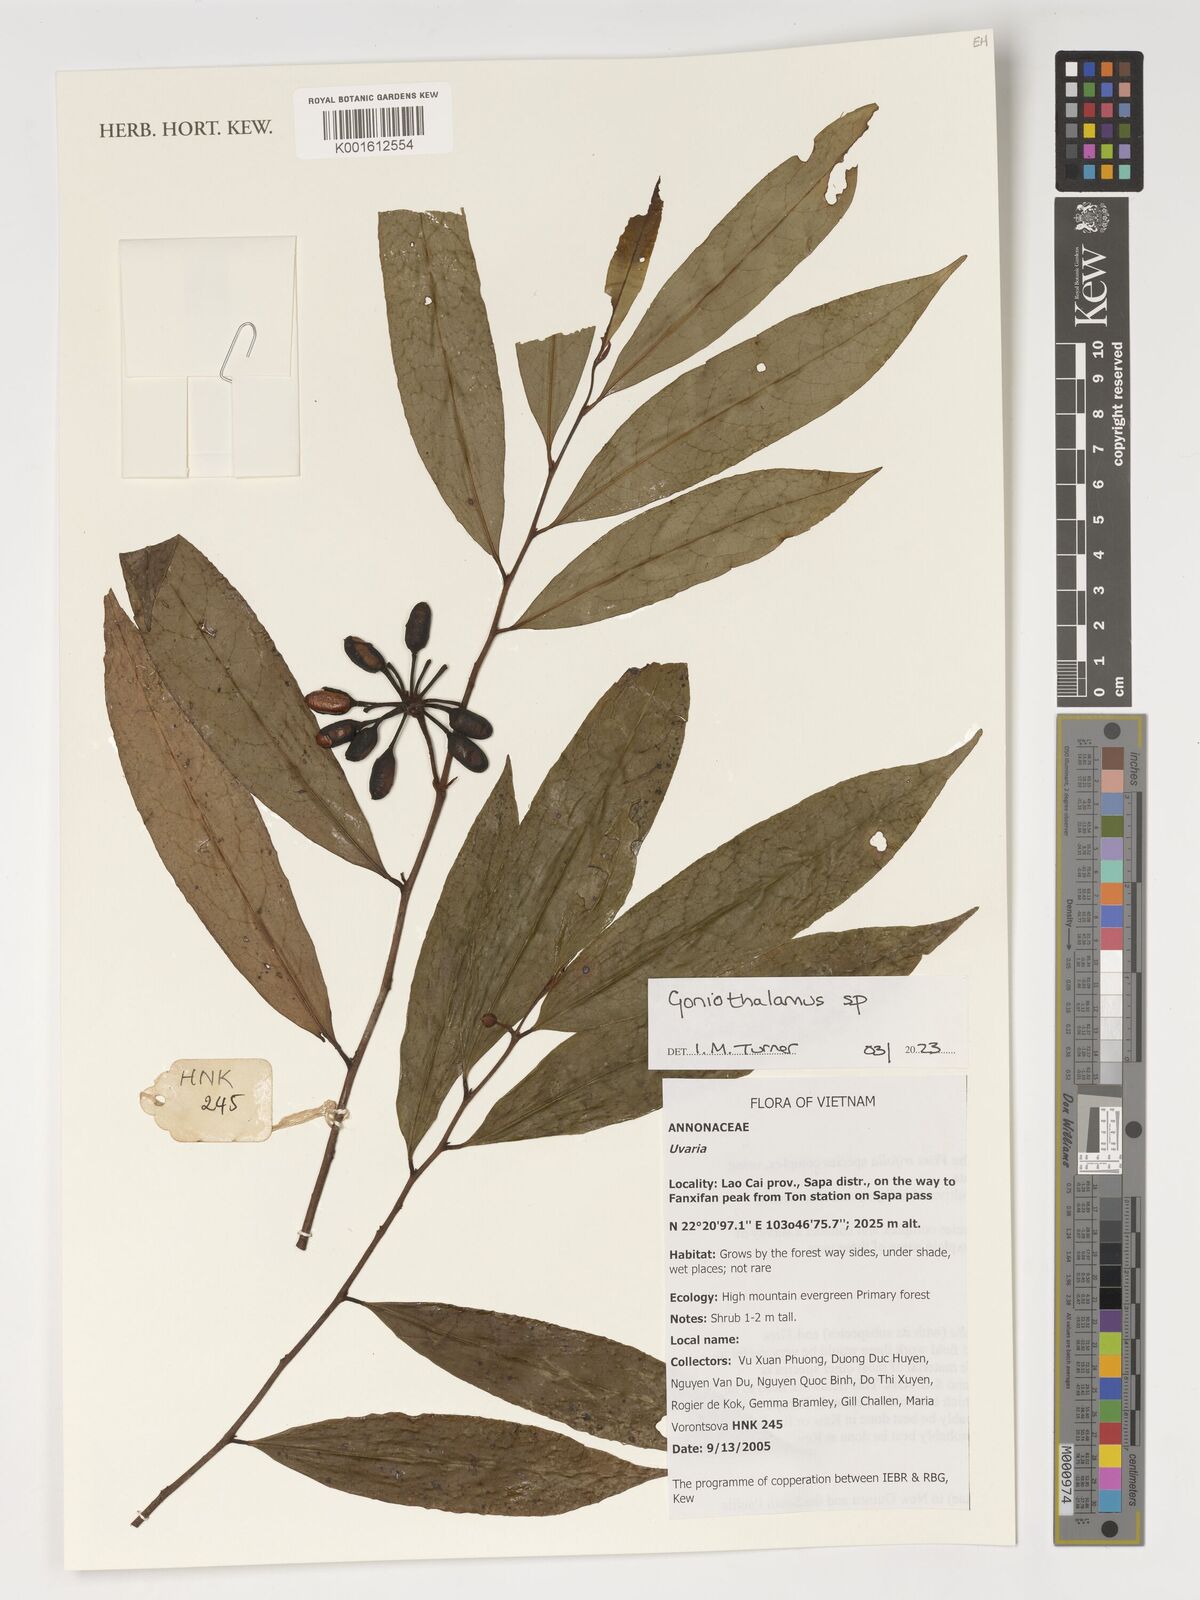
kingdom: Plantae
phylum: Tracheophyta
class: Magnoliopsida
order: Magnoliales
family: Annonaceae
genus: Goniothalamus
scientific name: Goniothalamus
